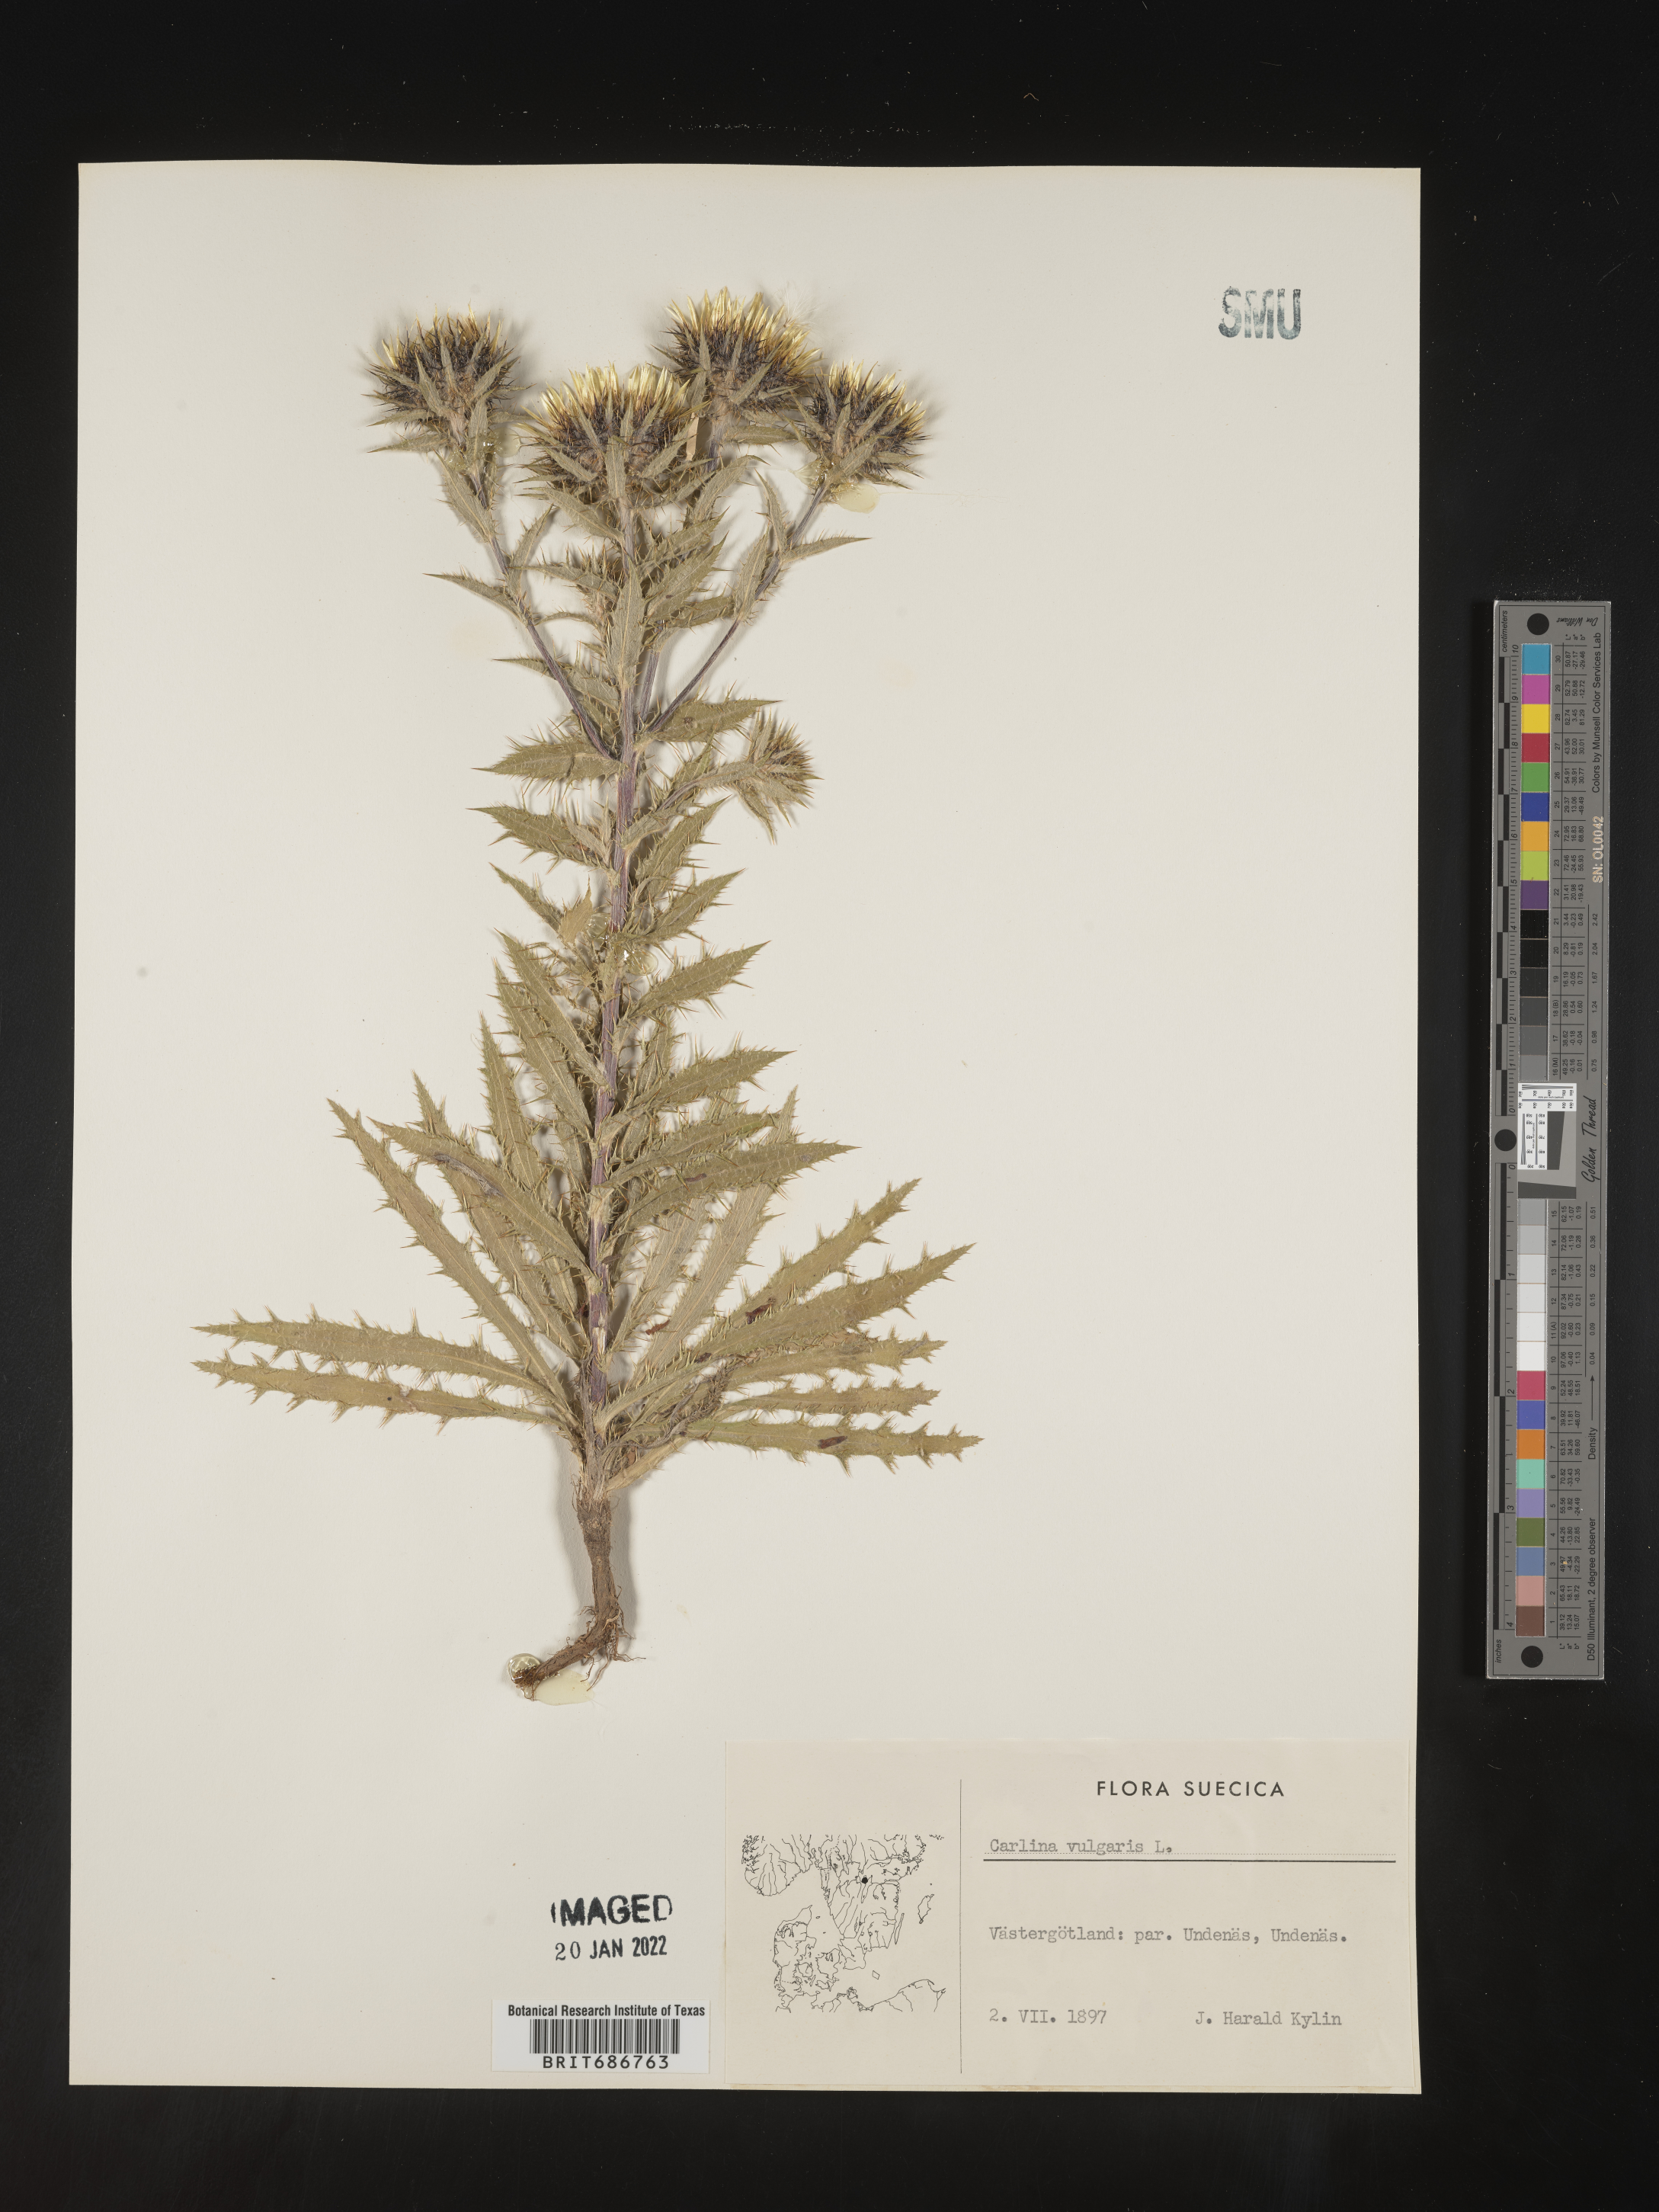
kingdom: Plantae
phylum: Tracheophyta
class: Magnoliopsida
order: Asterales
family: Asteraceae
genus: Carlina
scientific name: Carlina
